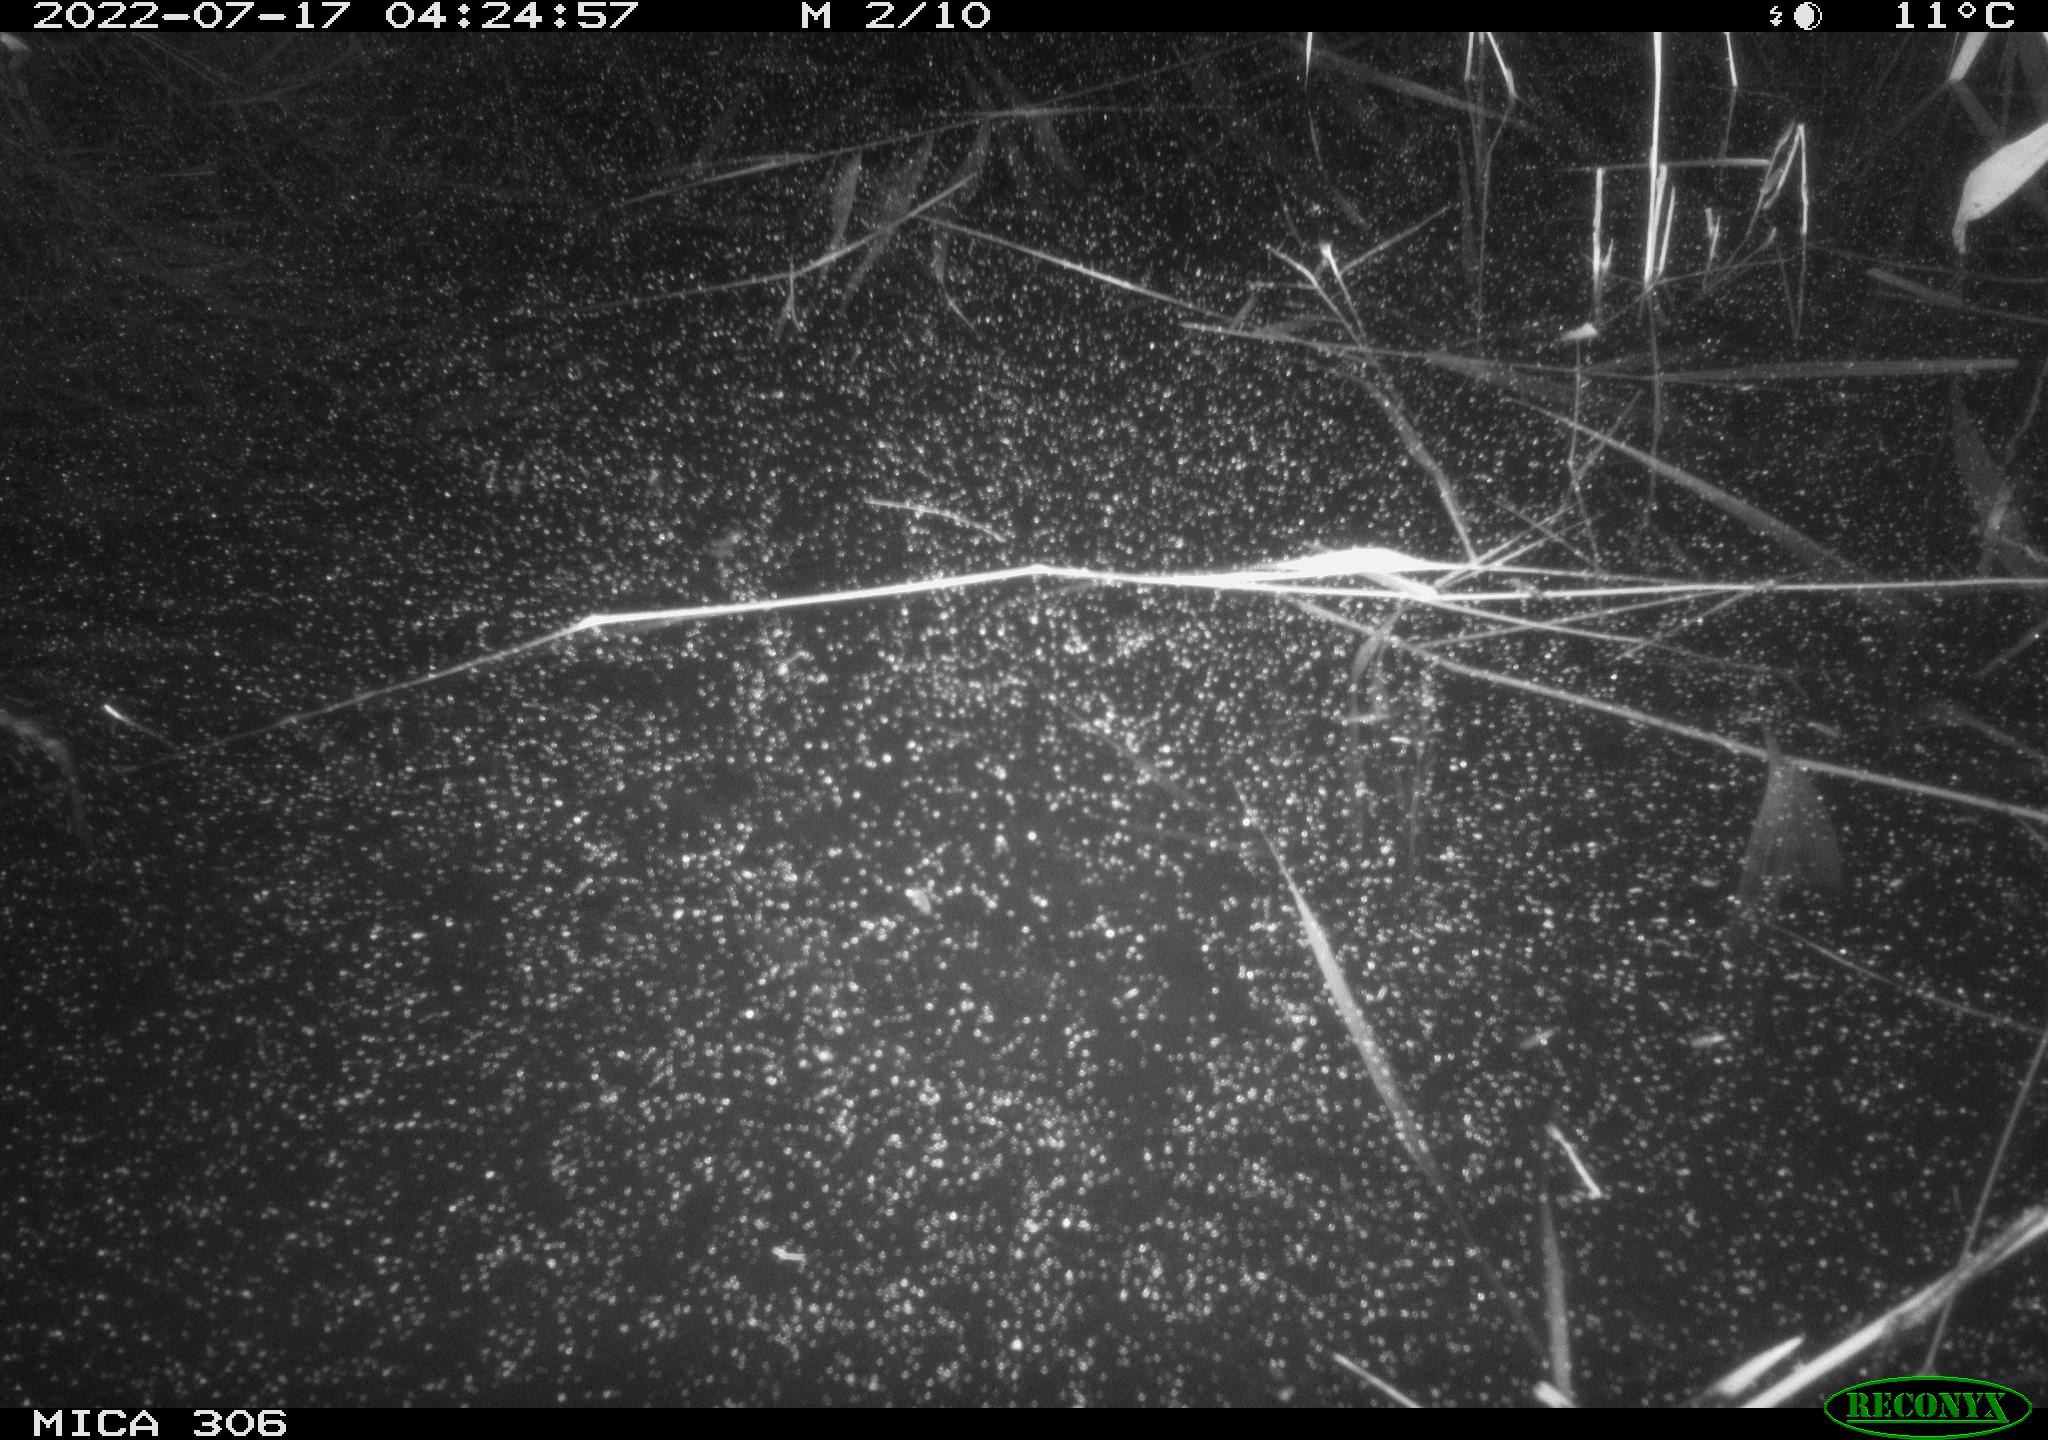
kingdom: Animalia
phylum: Chordata
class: Mammalia
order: Rodentia
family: Muridae
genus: Rattus
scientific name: Rattus norvegicus
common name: Brown rat
